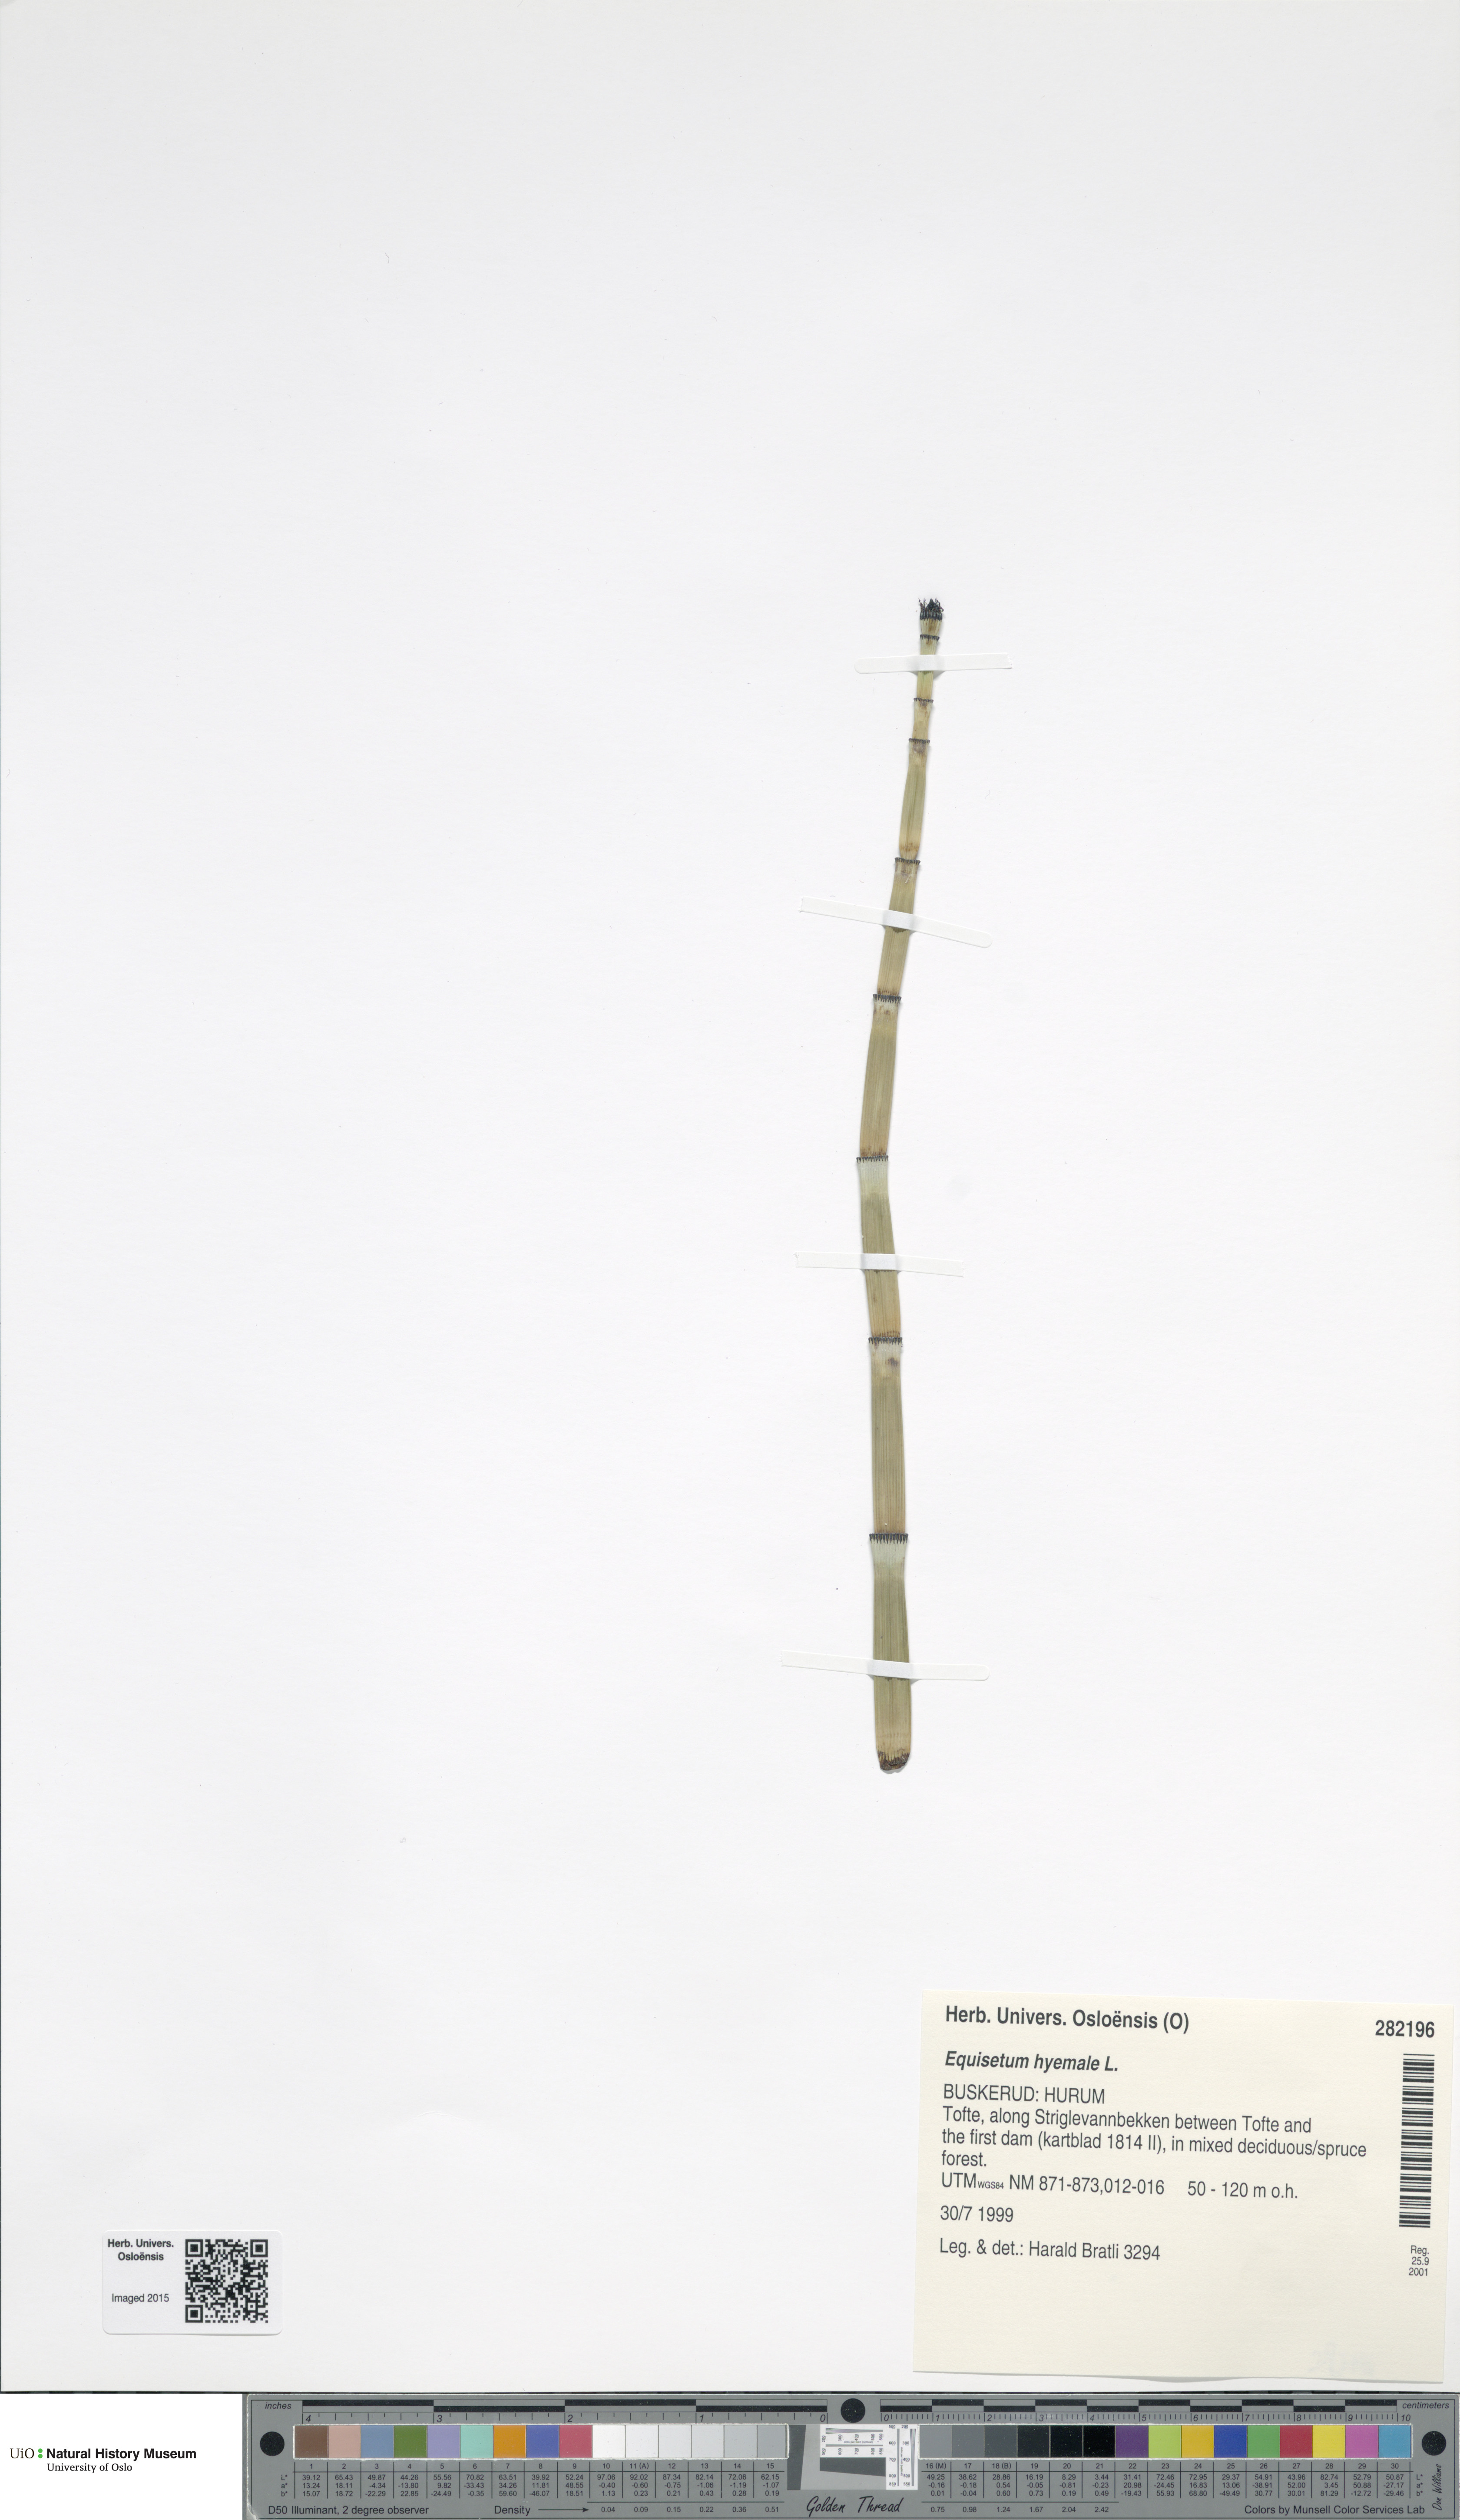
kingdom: Plantae
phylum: Tracheophyta
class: Polypodiopsida
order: Equisetales
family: Equisetaceae
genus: Equisetum
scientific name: Equisetum hyemale
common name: Rough horsetail
